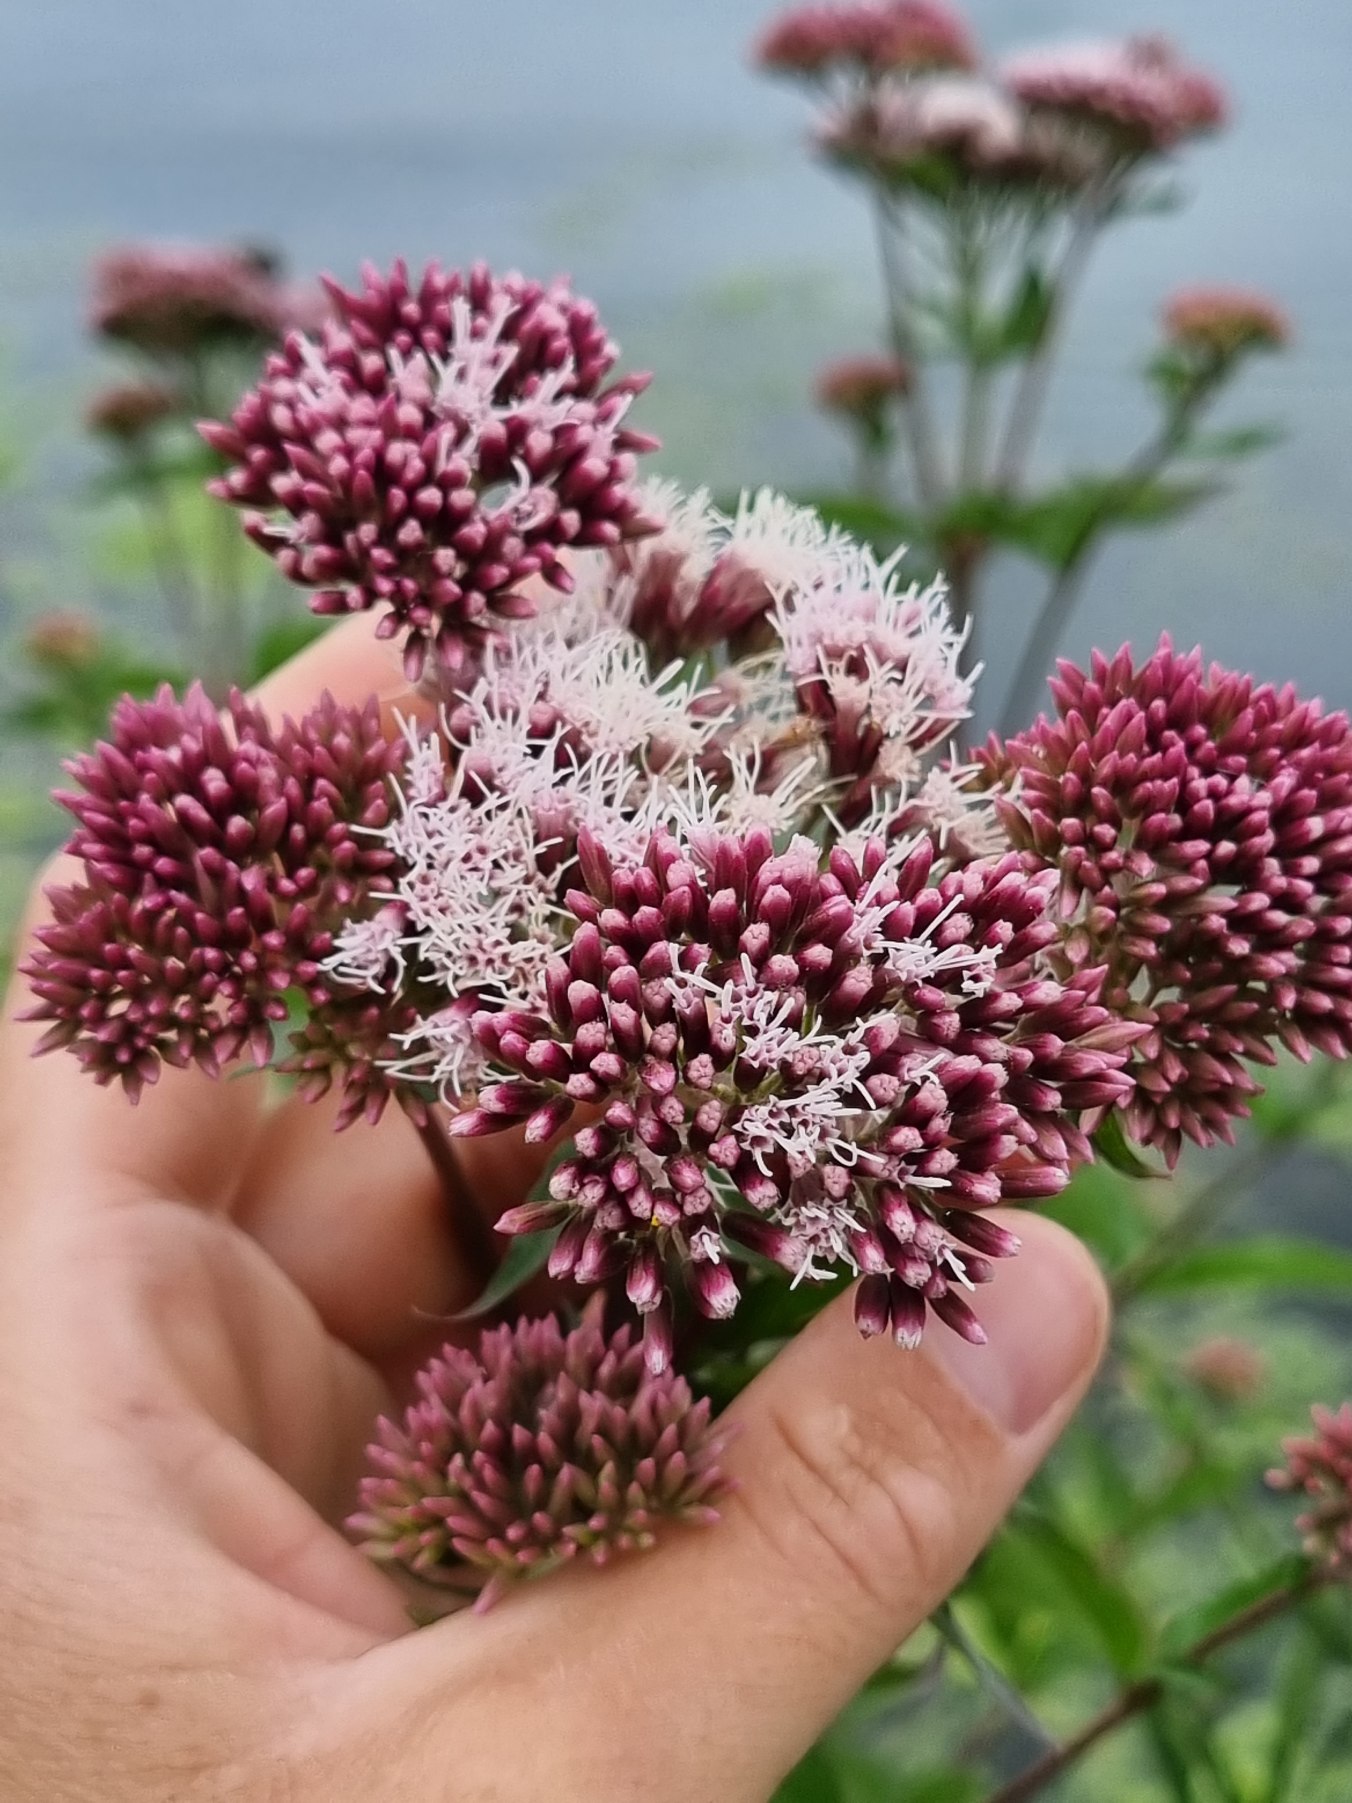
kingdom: Plantae
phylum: Tracheophyta
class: Magnoliopsida
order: Asterales
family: Asteraceae
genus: Eupatorium
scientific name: Eupatorium cannabinum
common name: Hjortetrøst
